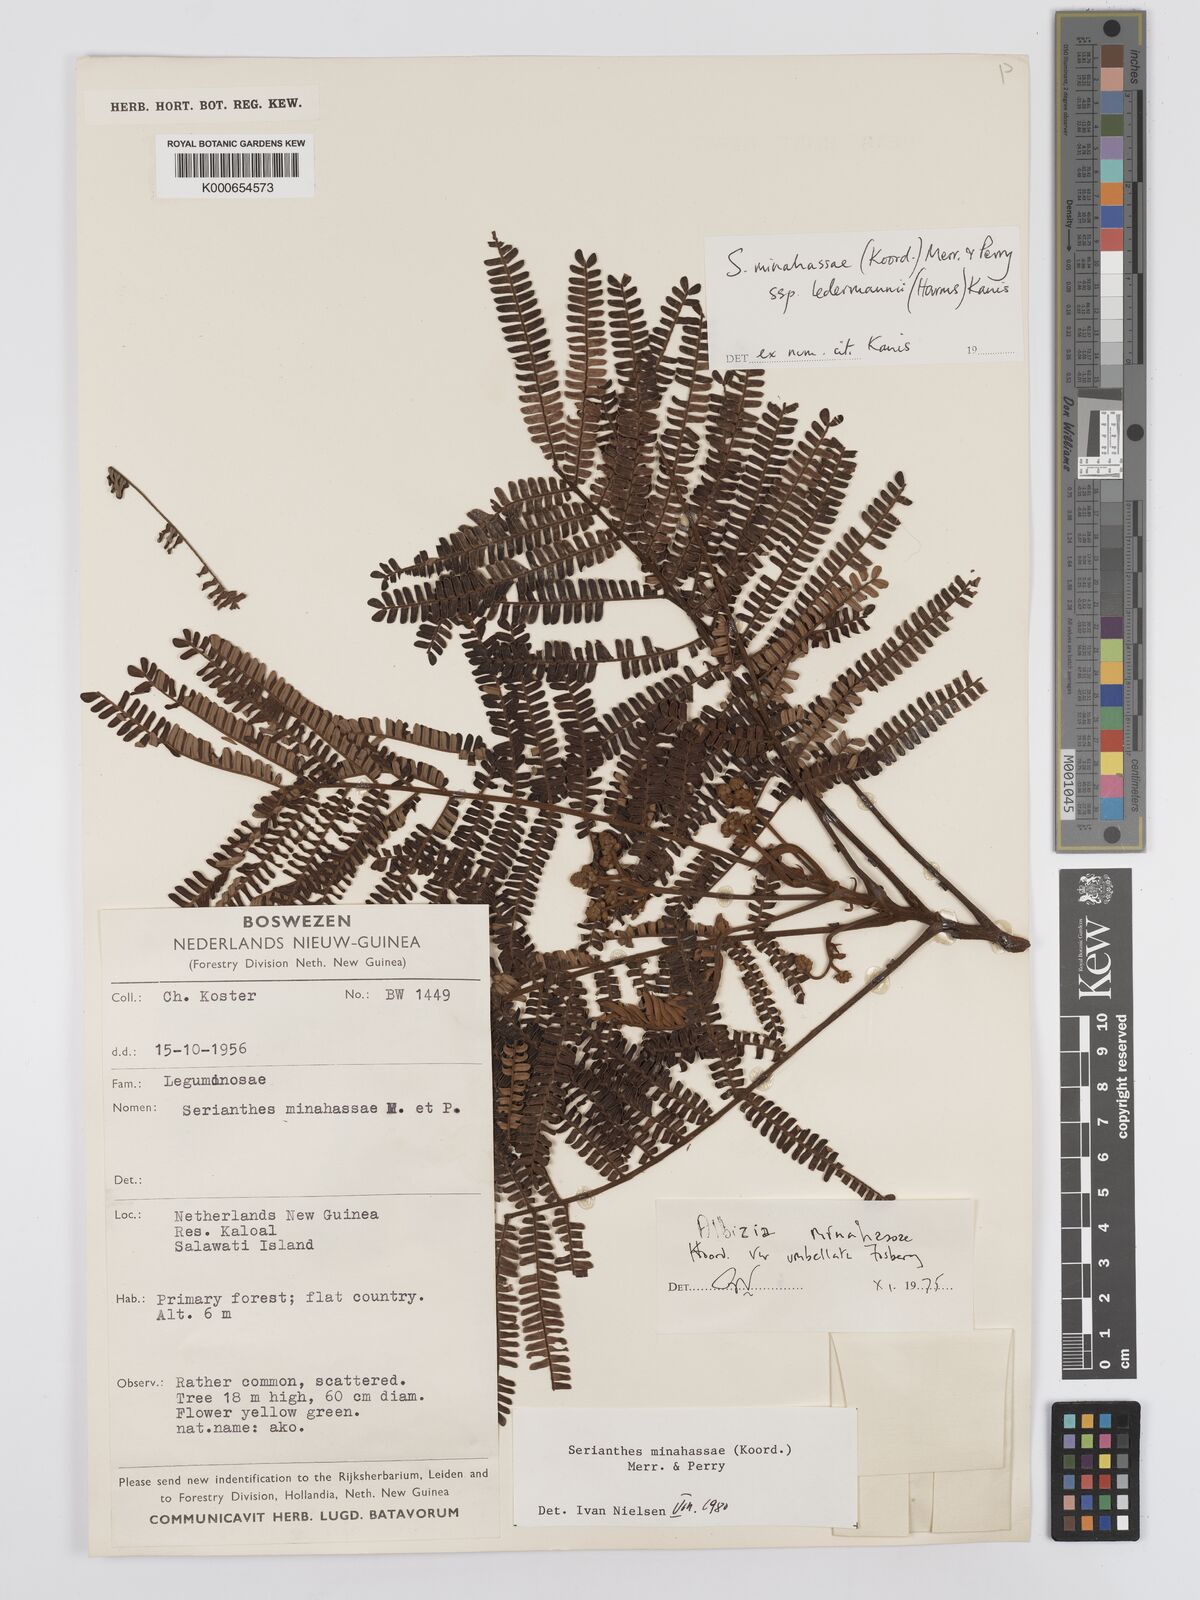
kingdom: Plantae
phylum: Tracheophyta
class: Magnoliopsida
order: Fabales
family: Fabaceae
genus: Serianthes
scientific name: Serianthes minahassae
